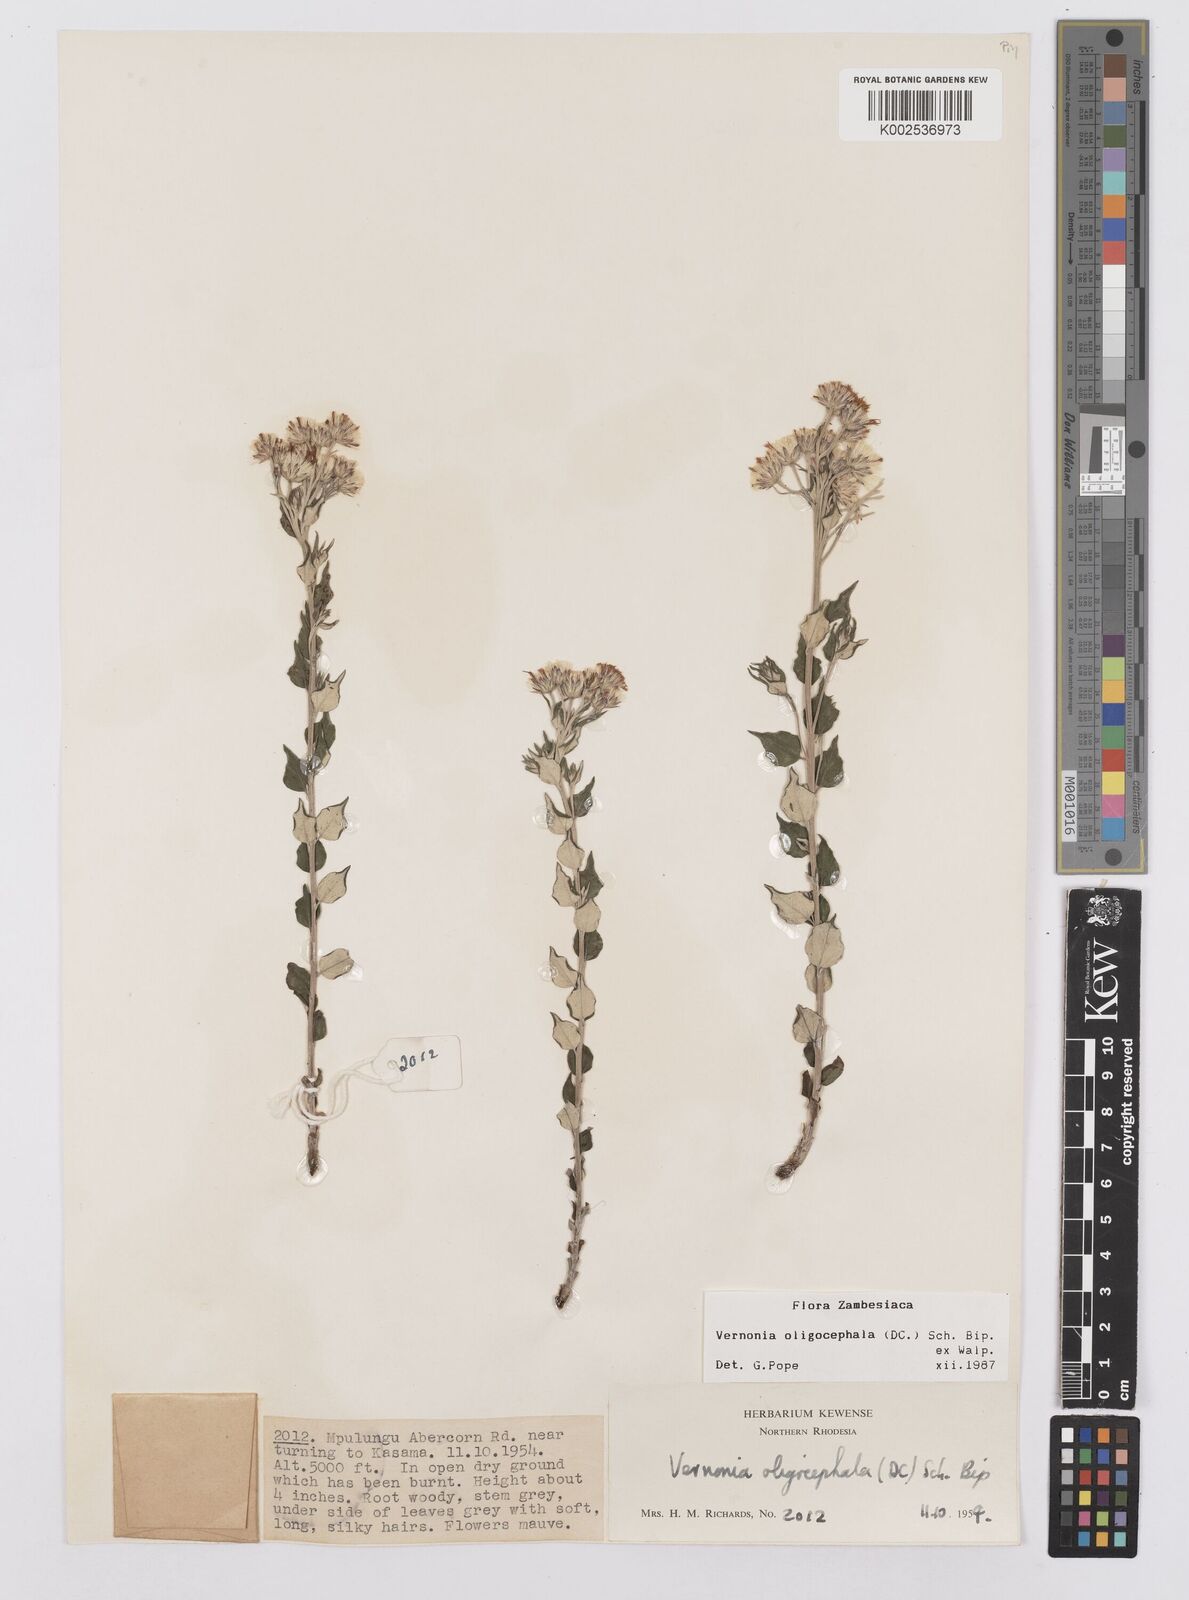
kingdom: Plantae
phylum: Tracheophyta
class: Magnoliopsida
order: Asterales
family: Asteraceae
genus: Hilliardiella
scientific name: Hilliardiella oligocephala
